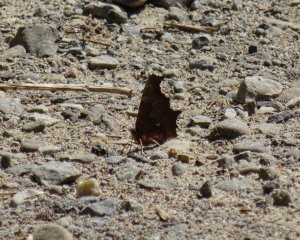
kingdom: Animalia
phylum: Arthropoda
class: Insecta
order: Lepidoptera
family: Nymphalidae
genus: Polygonia
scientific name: Polygonia comma
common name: Eastern Comma
